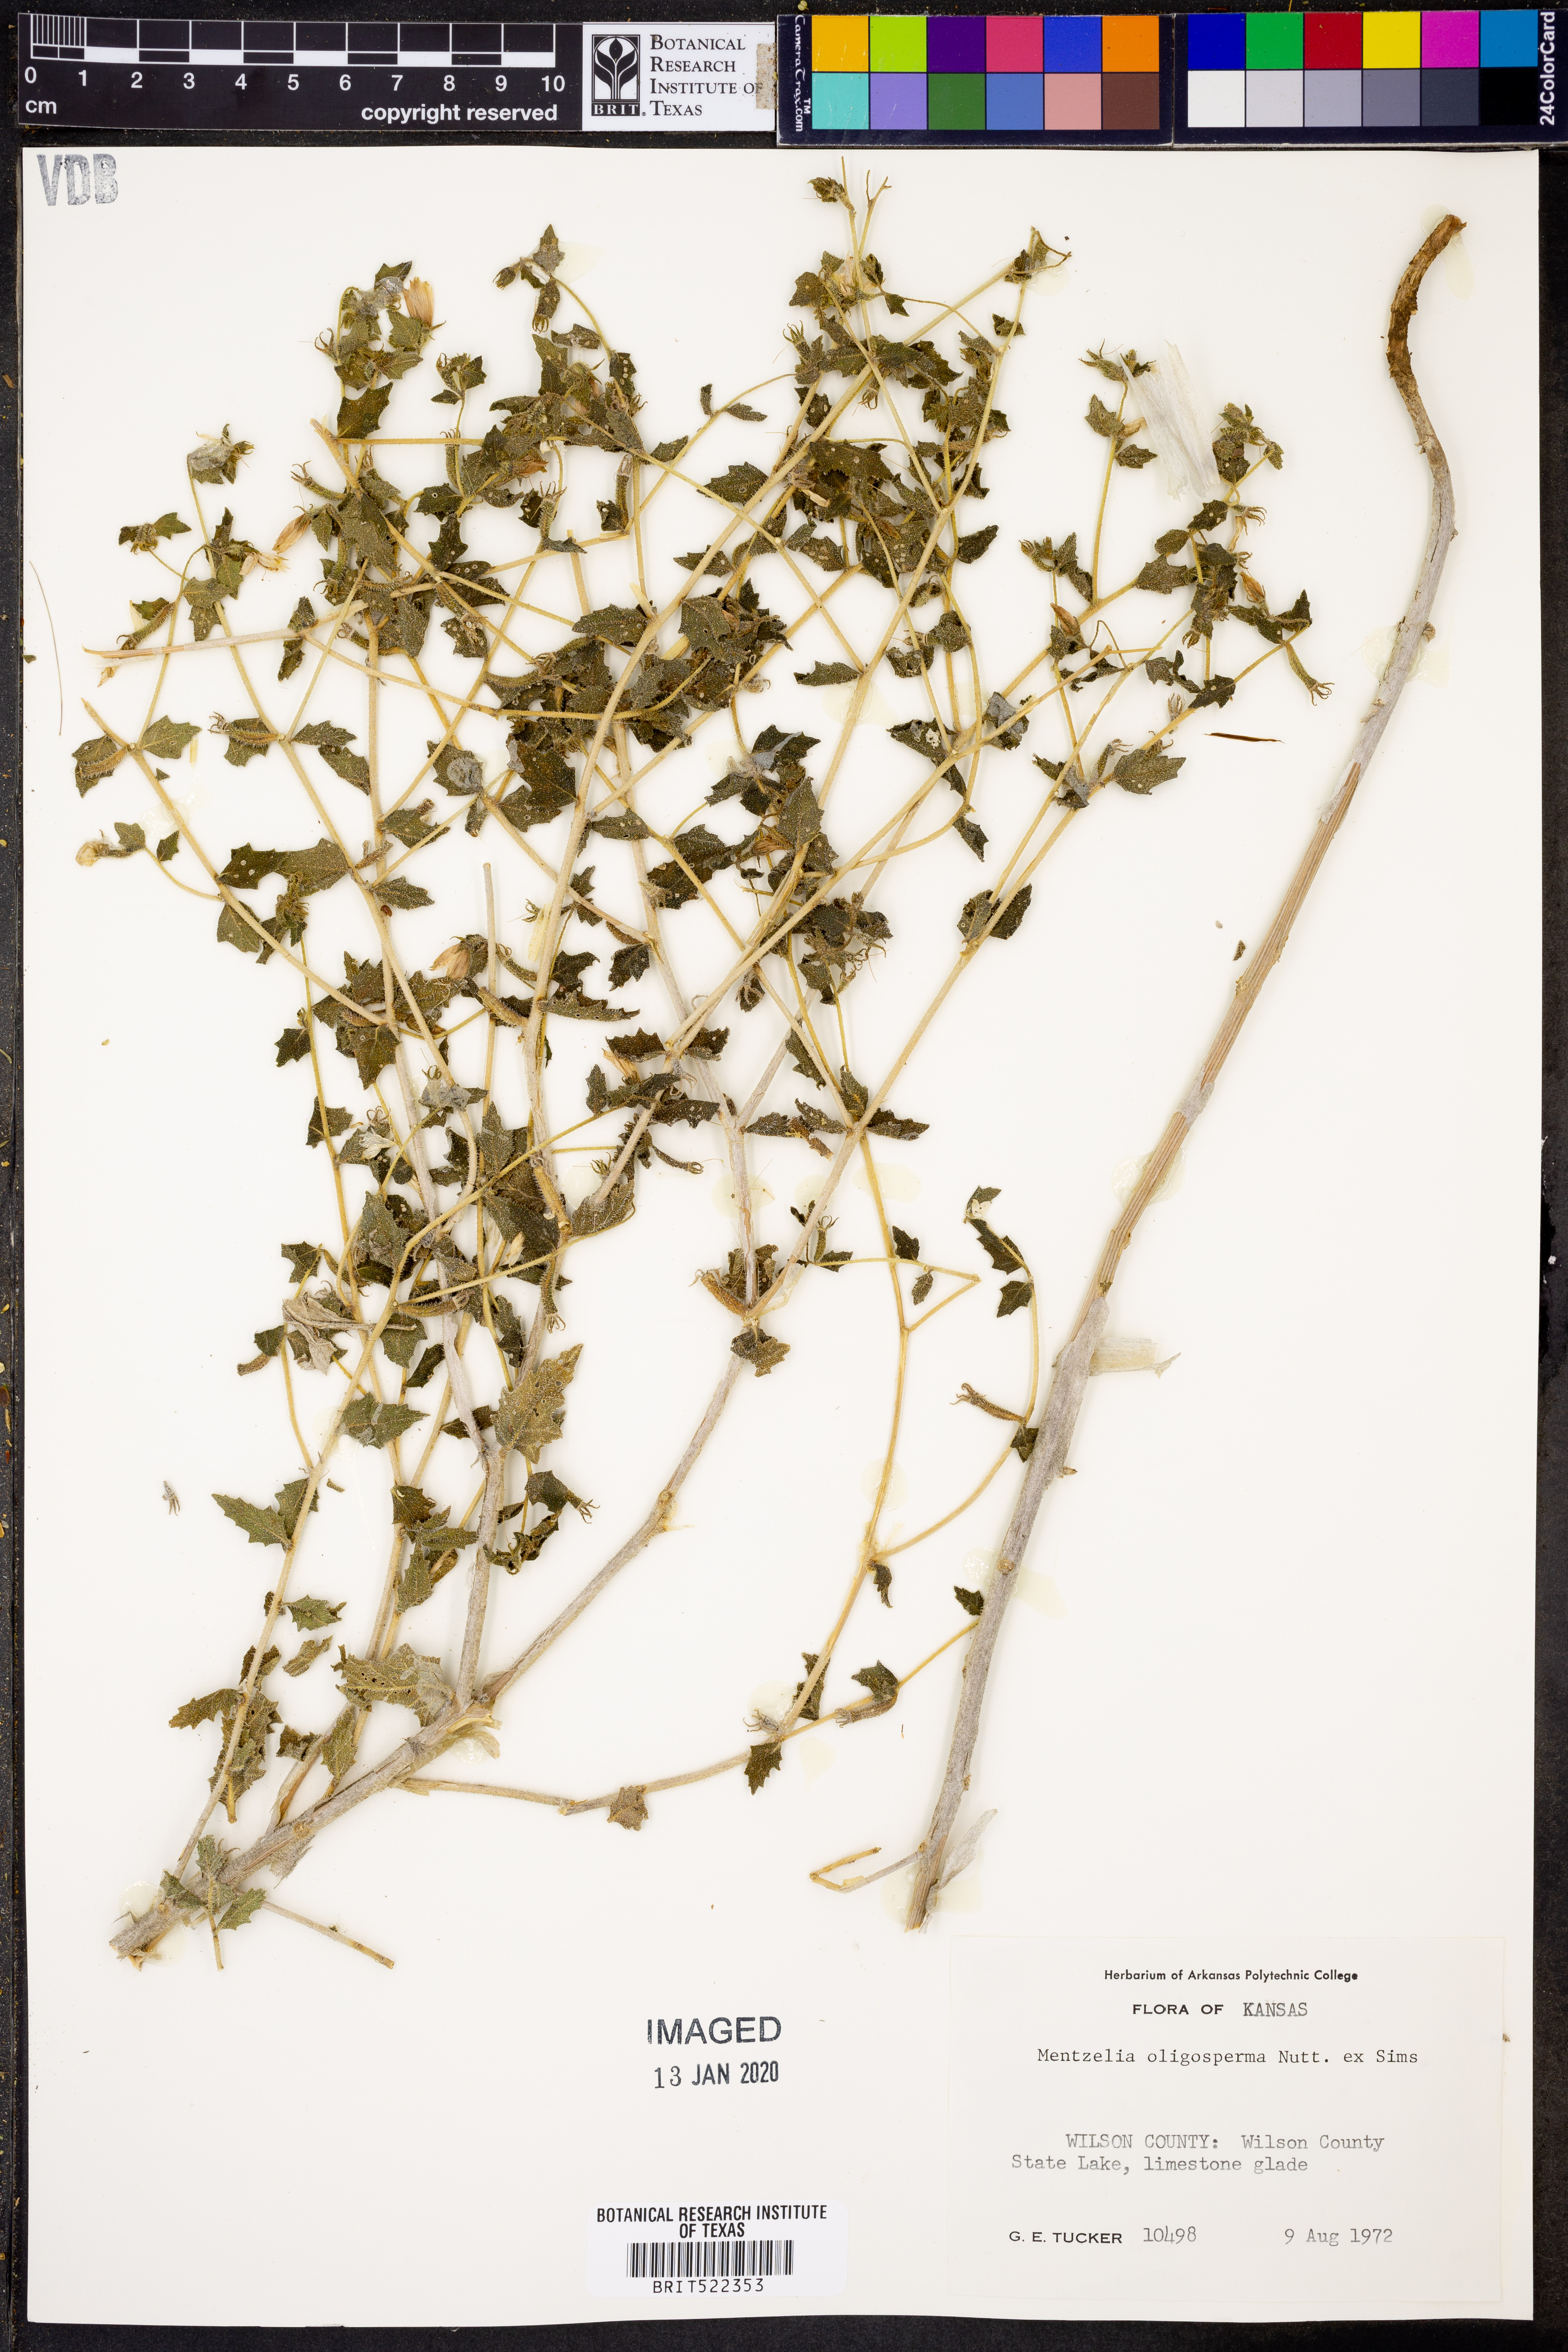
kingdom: Plantae
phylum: Tracheophyta
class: Magnoliopsida
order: Cornales
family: Loasaceae
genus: Mentzelia
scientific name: Mentzelia oligosperma
